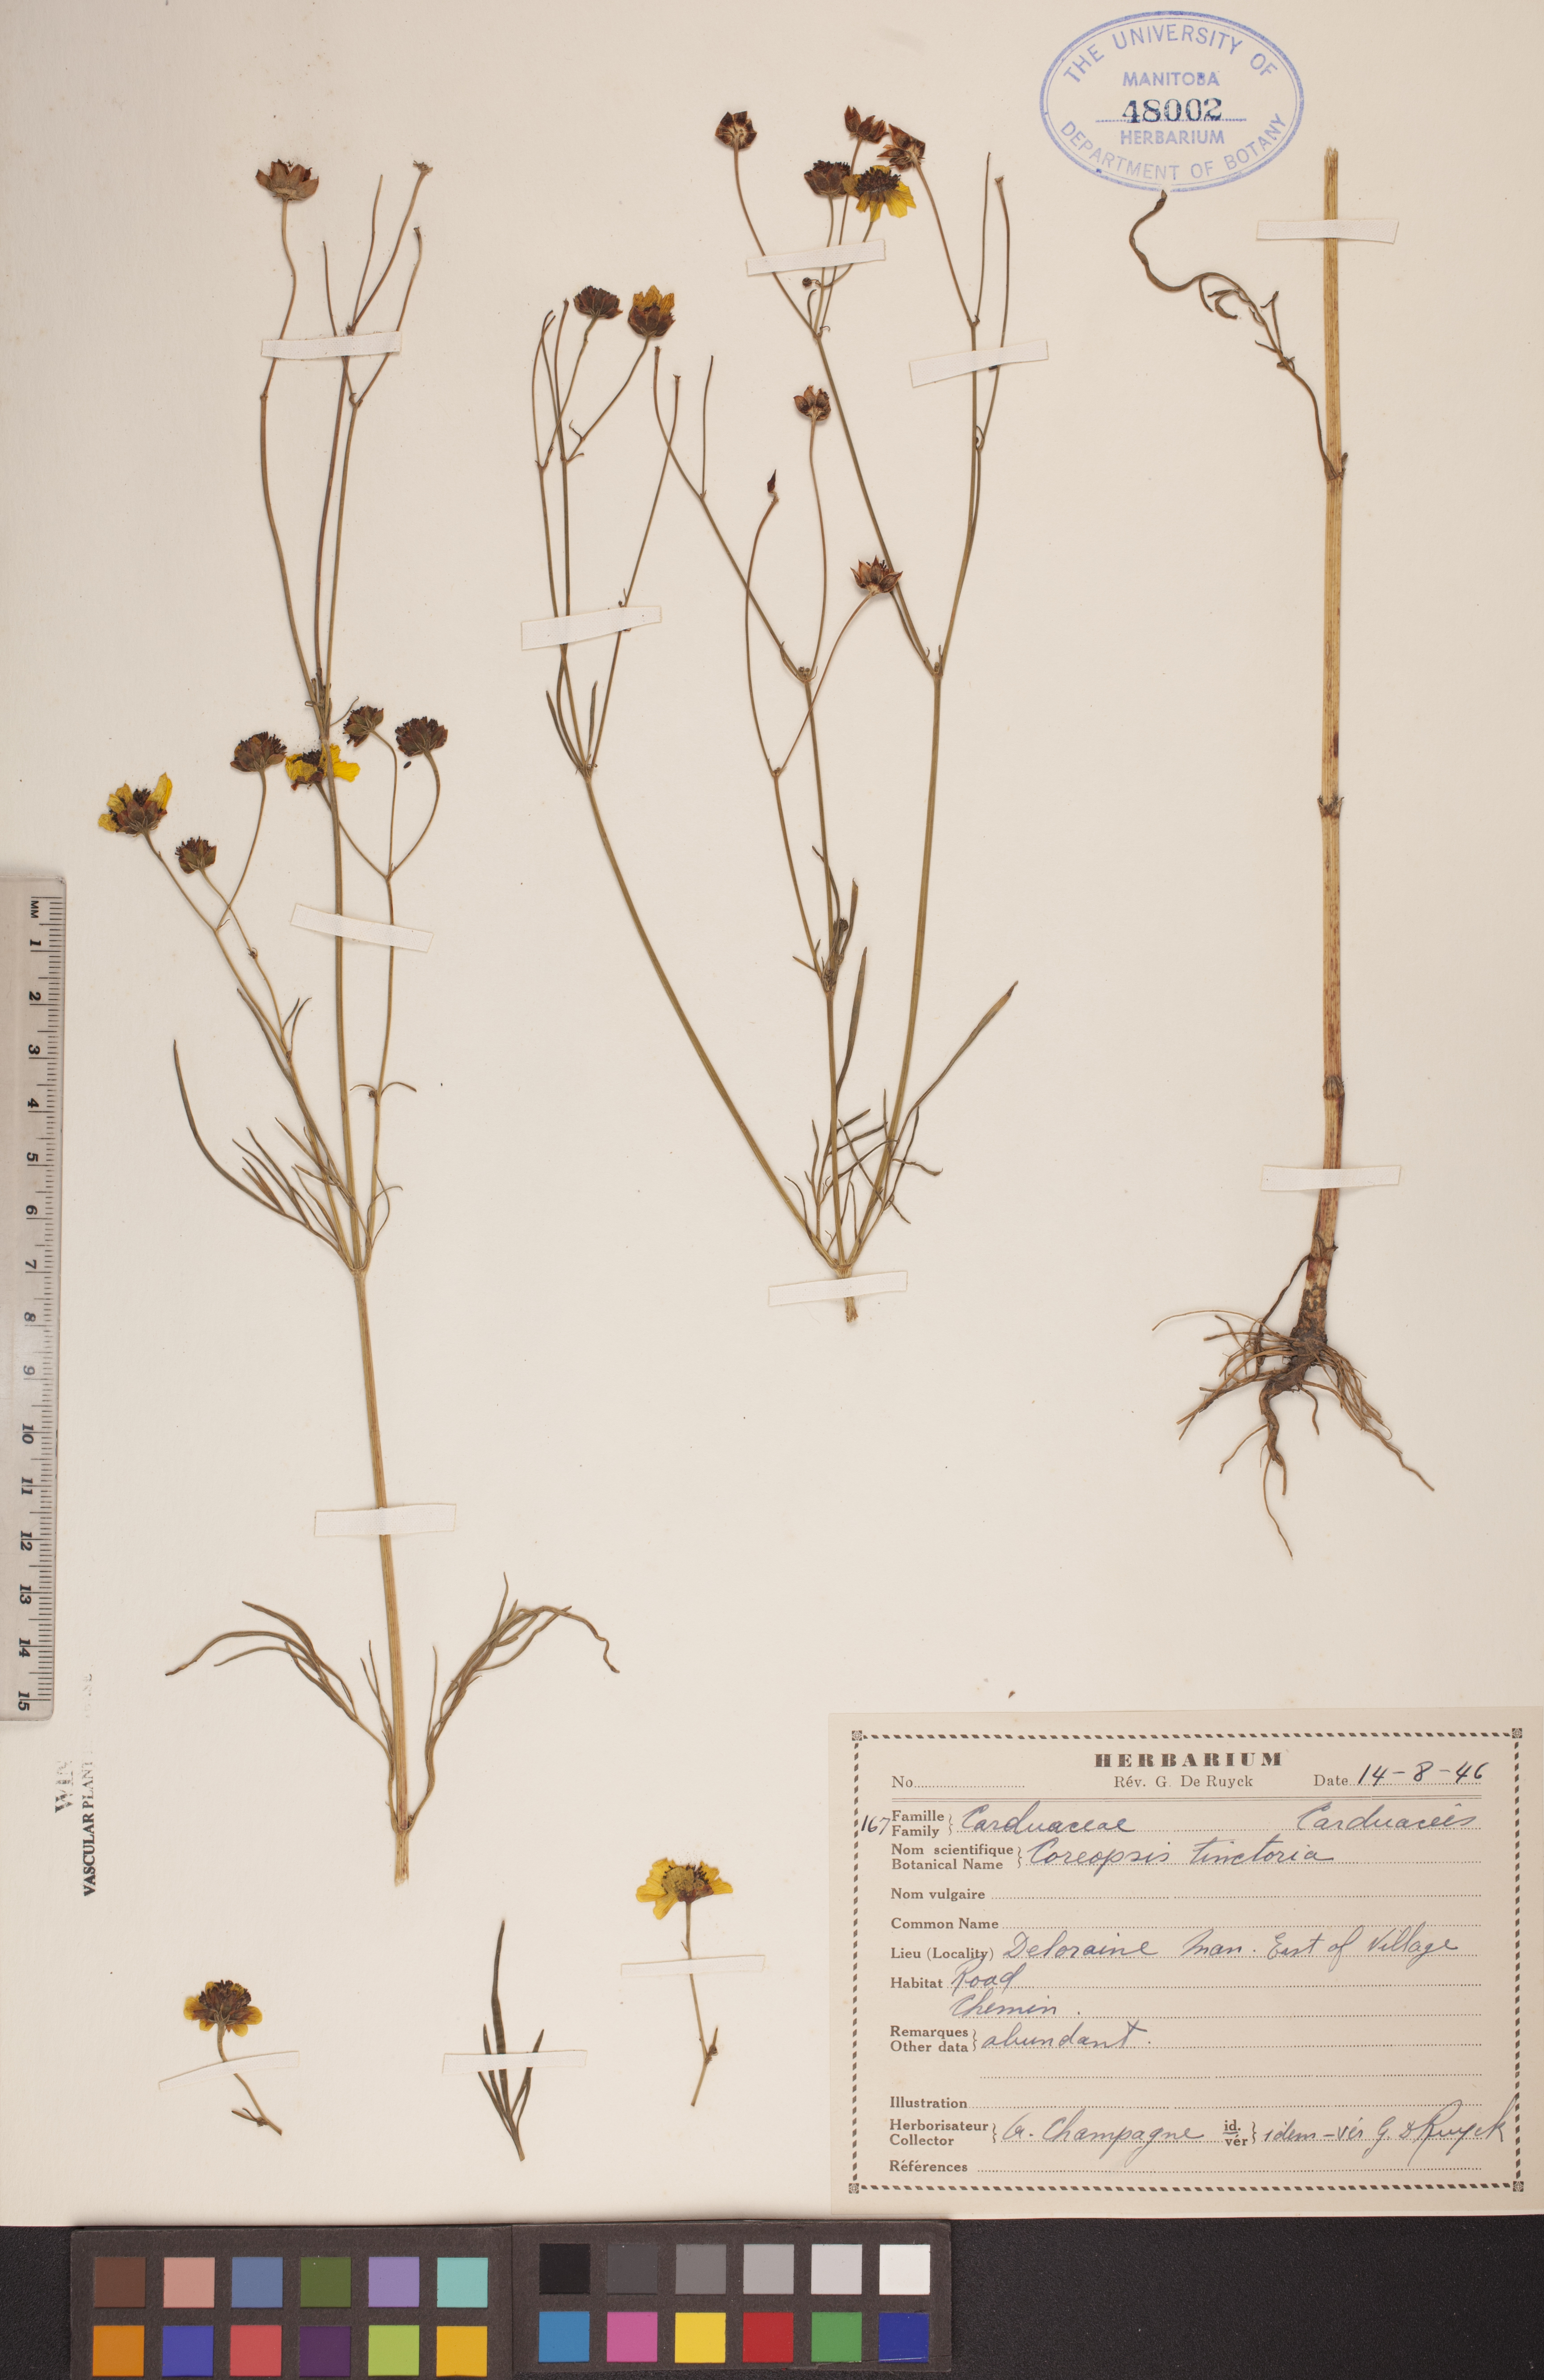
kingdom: Plantae
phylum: Tracheophyta
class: Magnoliopsida
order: Asterales
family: Asteraceae
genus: Coreopsis
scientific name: Coreopsis tinctoria
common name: Garden tickseed
